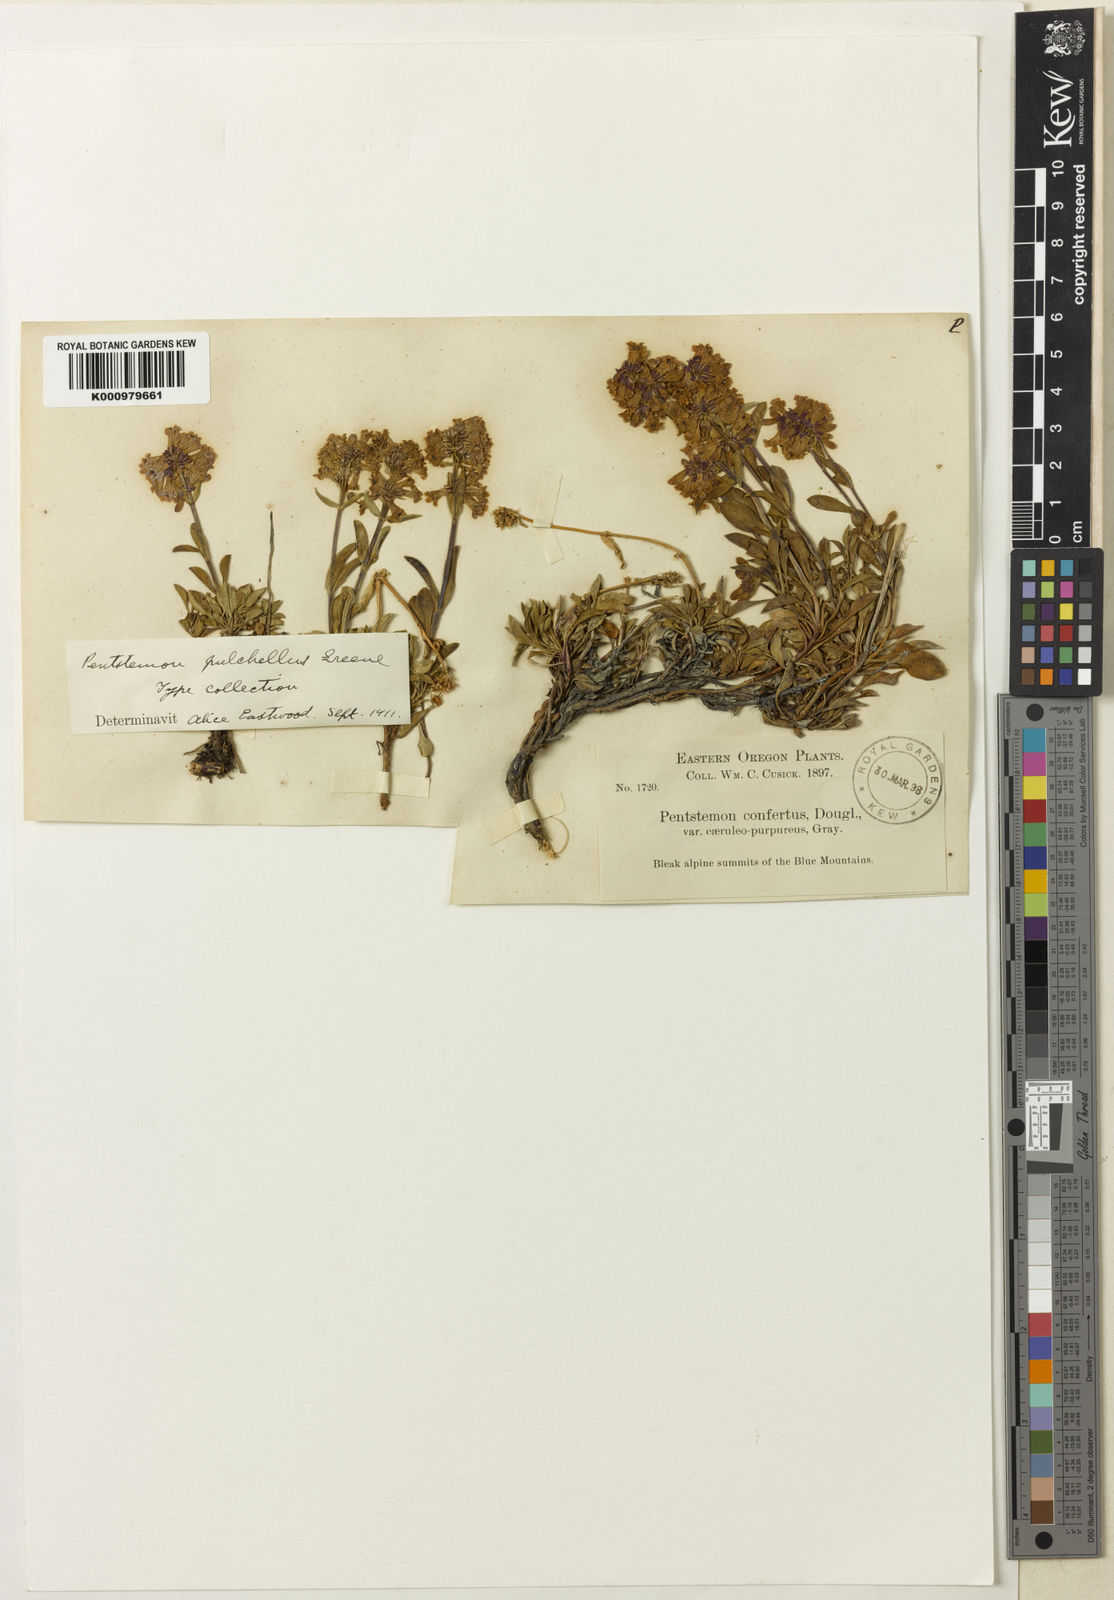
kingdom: Plantae
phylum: Tracheophyta
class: Magnoliopsida
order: Lamiales
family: Plantaginaceae
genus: Penstemon
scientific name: Penstemon
